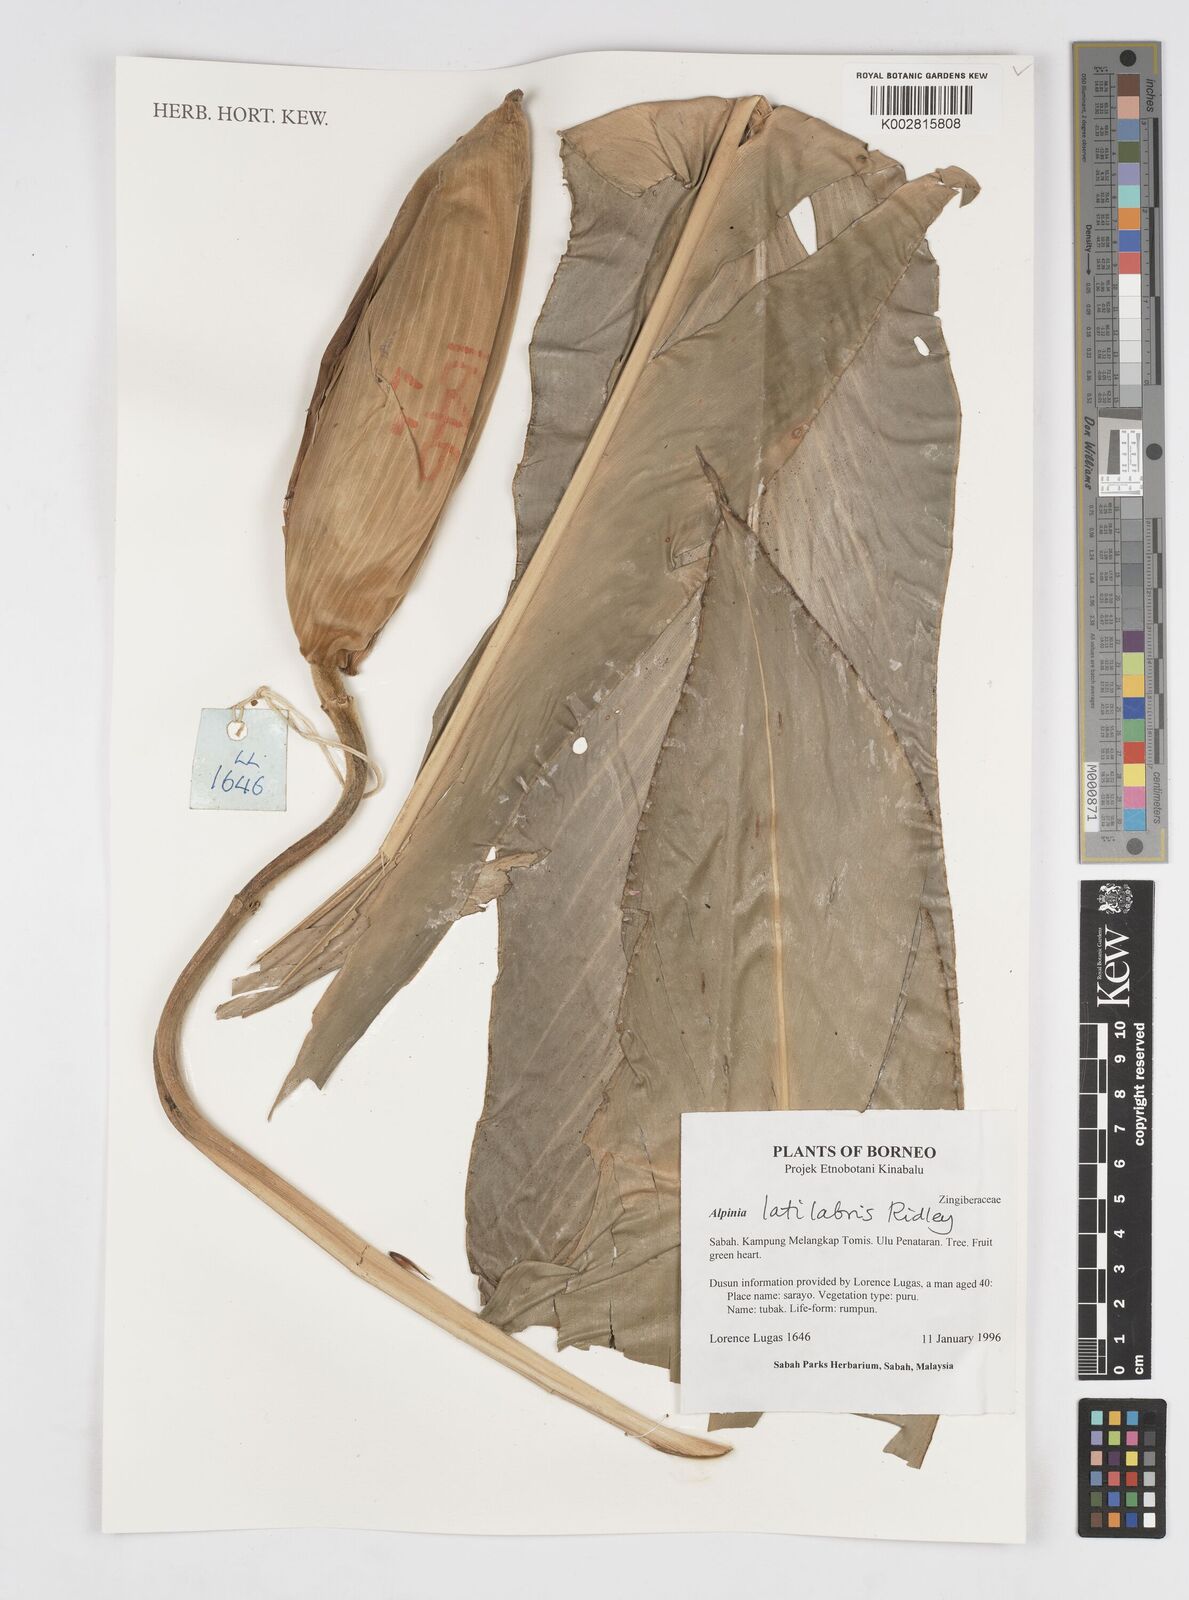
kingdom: Plantae
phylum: Tracheophyta
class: Liliopsida
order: Zingiberales
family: Zingiberaceae
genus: Alpinia
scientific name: Alpinia latilabris
